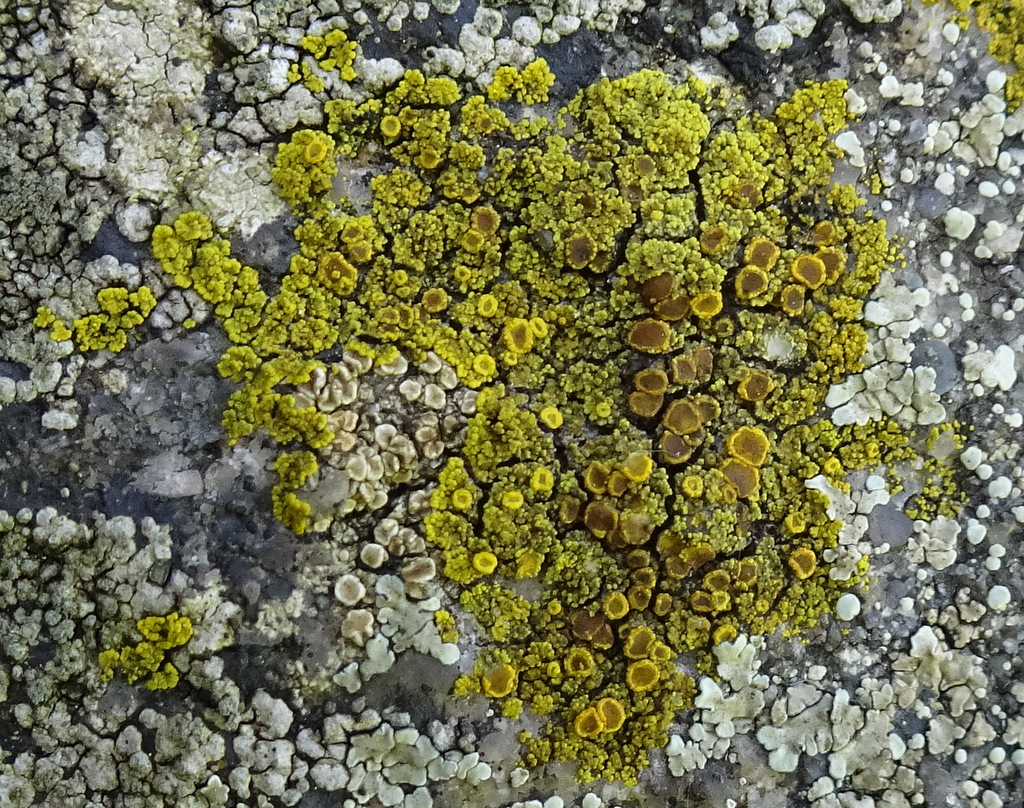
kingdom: Fungi
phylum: Ascomycota
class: Candelariomycetes
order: Candelariales
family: Candelariaceae
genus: Candelariella
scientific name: Candelariella vitellina
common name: almindelig æggeblommelav
